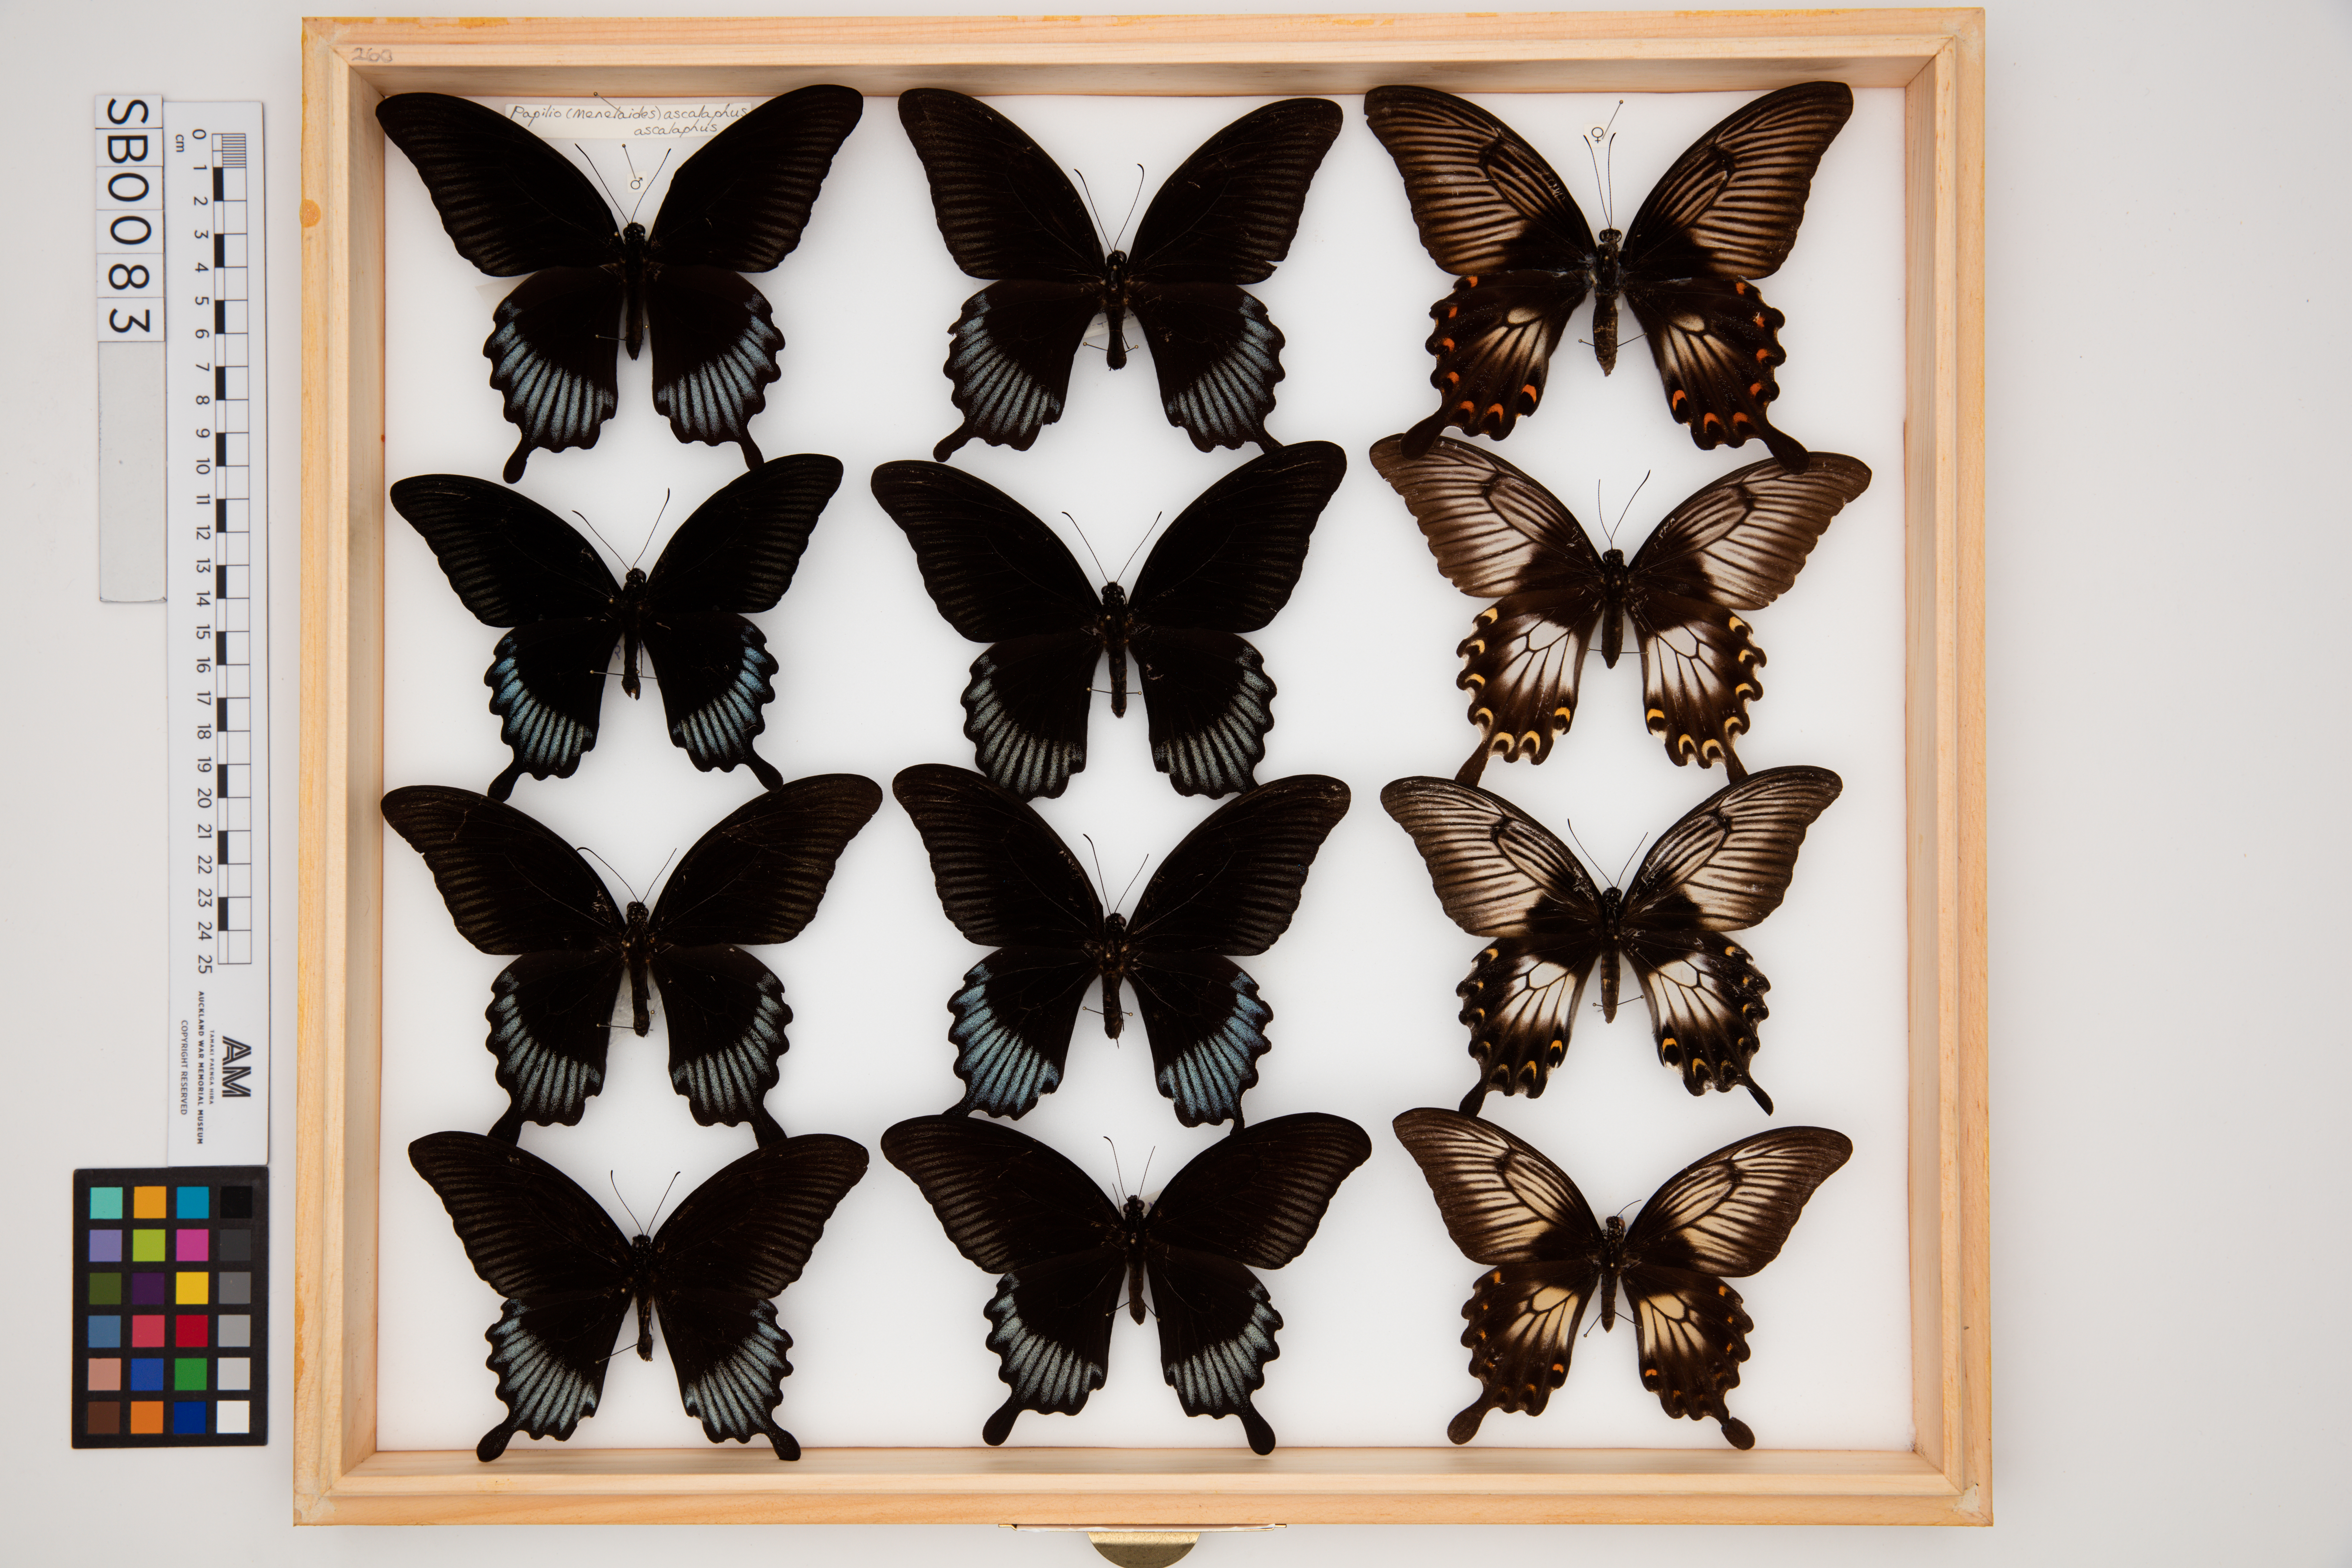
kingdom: Animalia
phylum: Arthropoda
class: Insecta
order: Lepidoptera
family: Papilionidae
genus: Papilio
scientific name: Papilio ascalaphus
